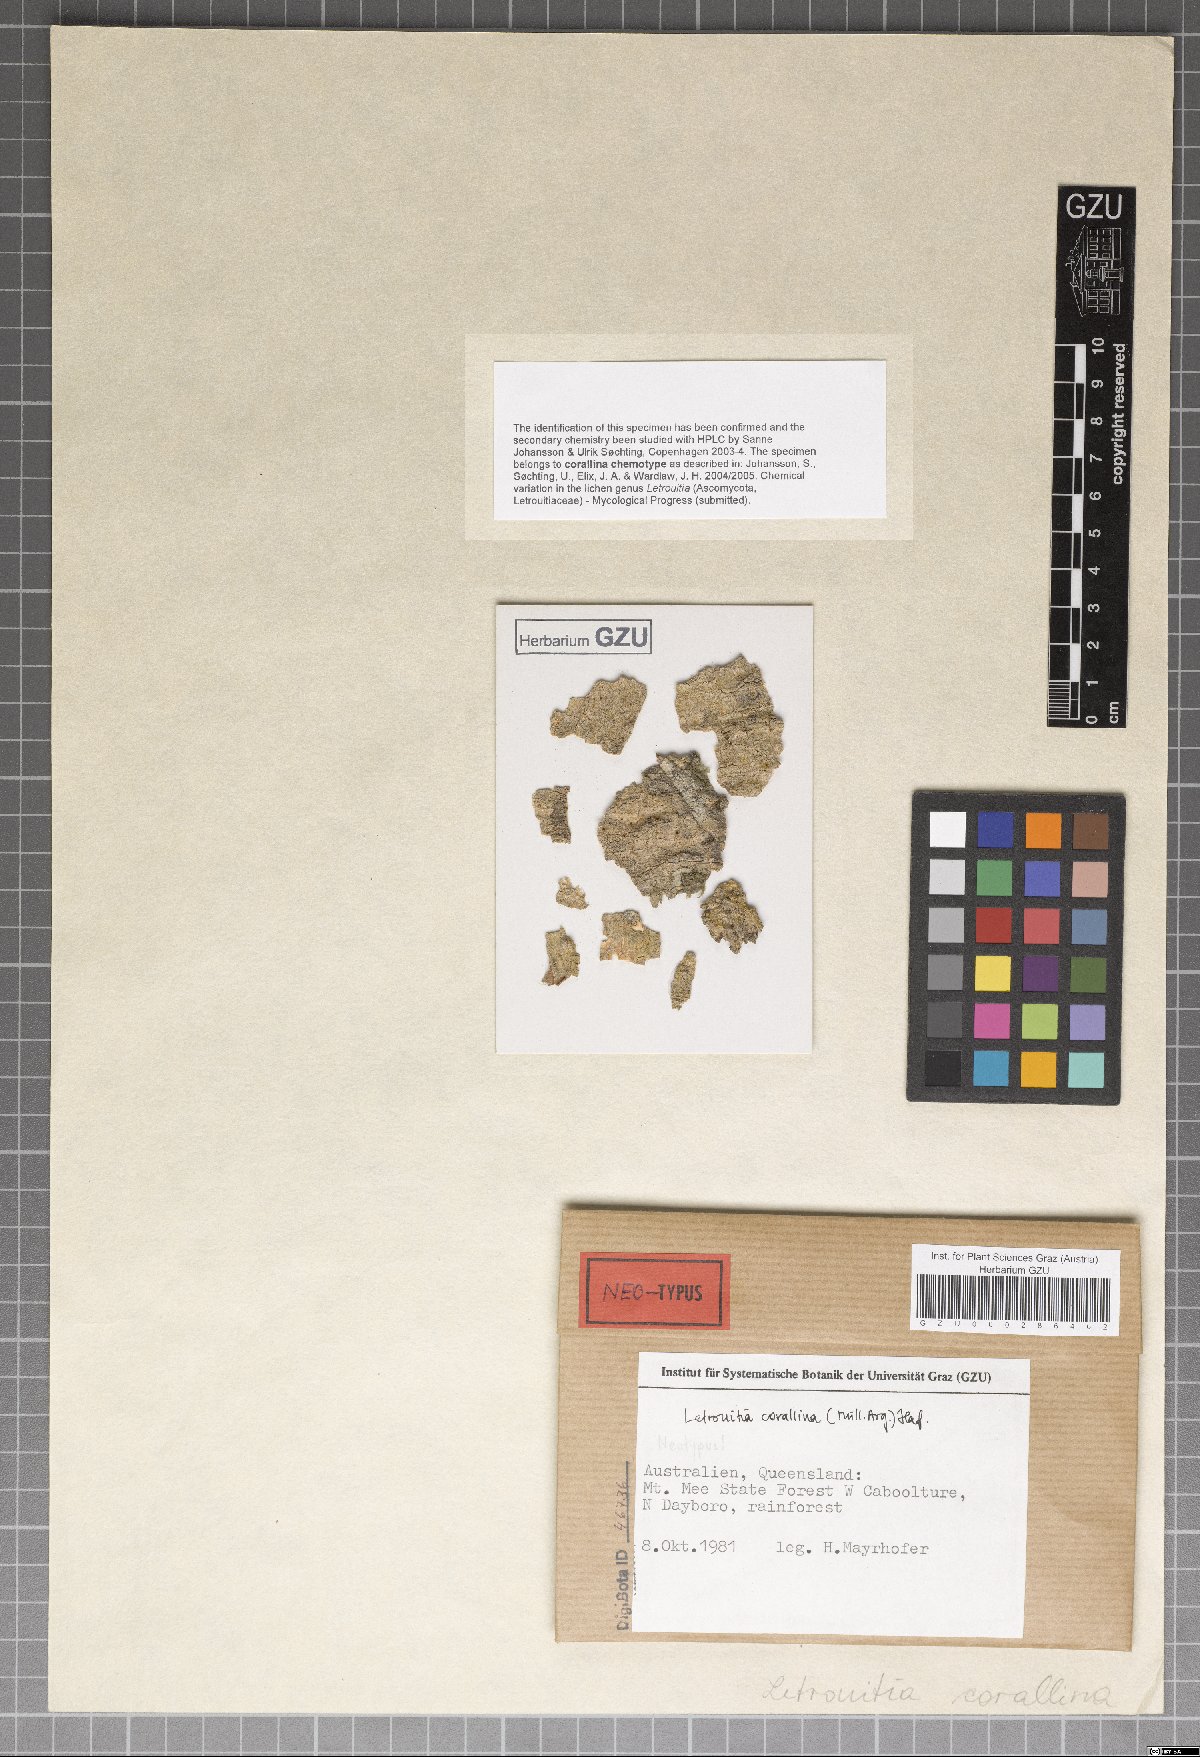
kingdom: Fungi
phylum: Ascomycota
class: Lecanoromycetes
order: Teloschistales
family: Letrouitiaceae
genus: Letrouitia
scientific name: Letrouitia corallina
